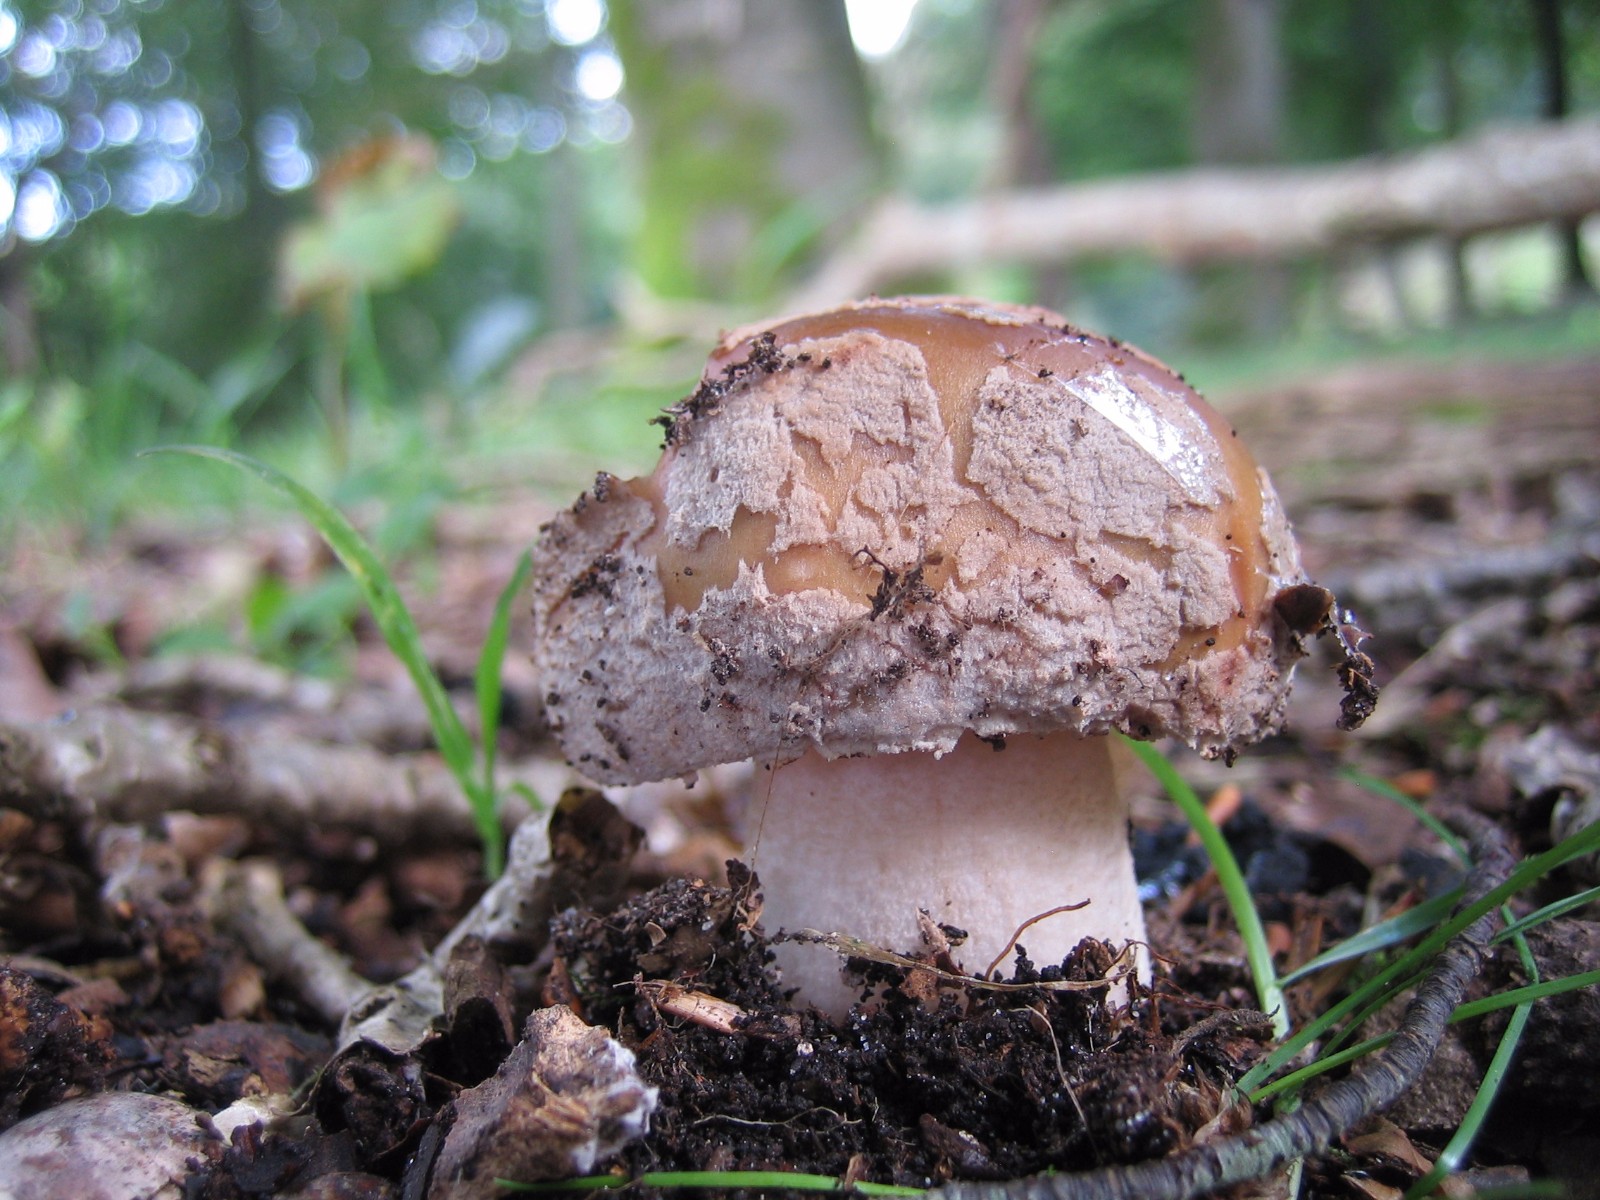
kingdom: Fungi
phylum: Basidiomycota
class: Agaricomycetes
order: Agaricales
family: Amanitaceae
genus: Amanita
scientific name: Amanita rubescens
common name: rødmende fluesvamp
